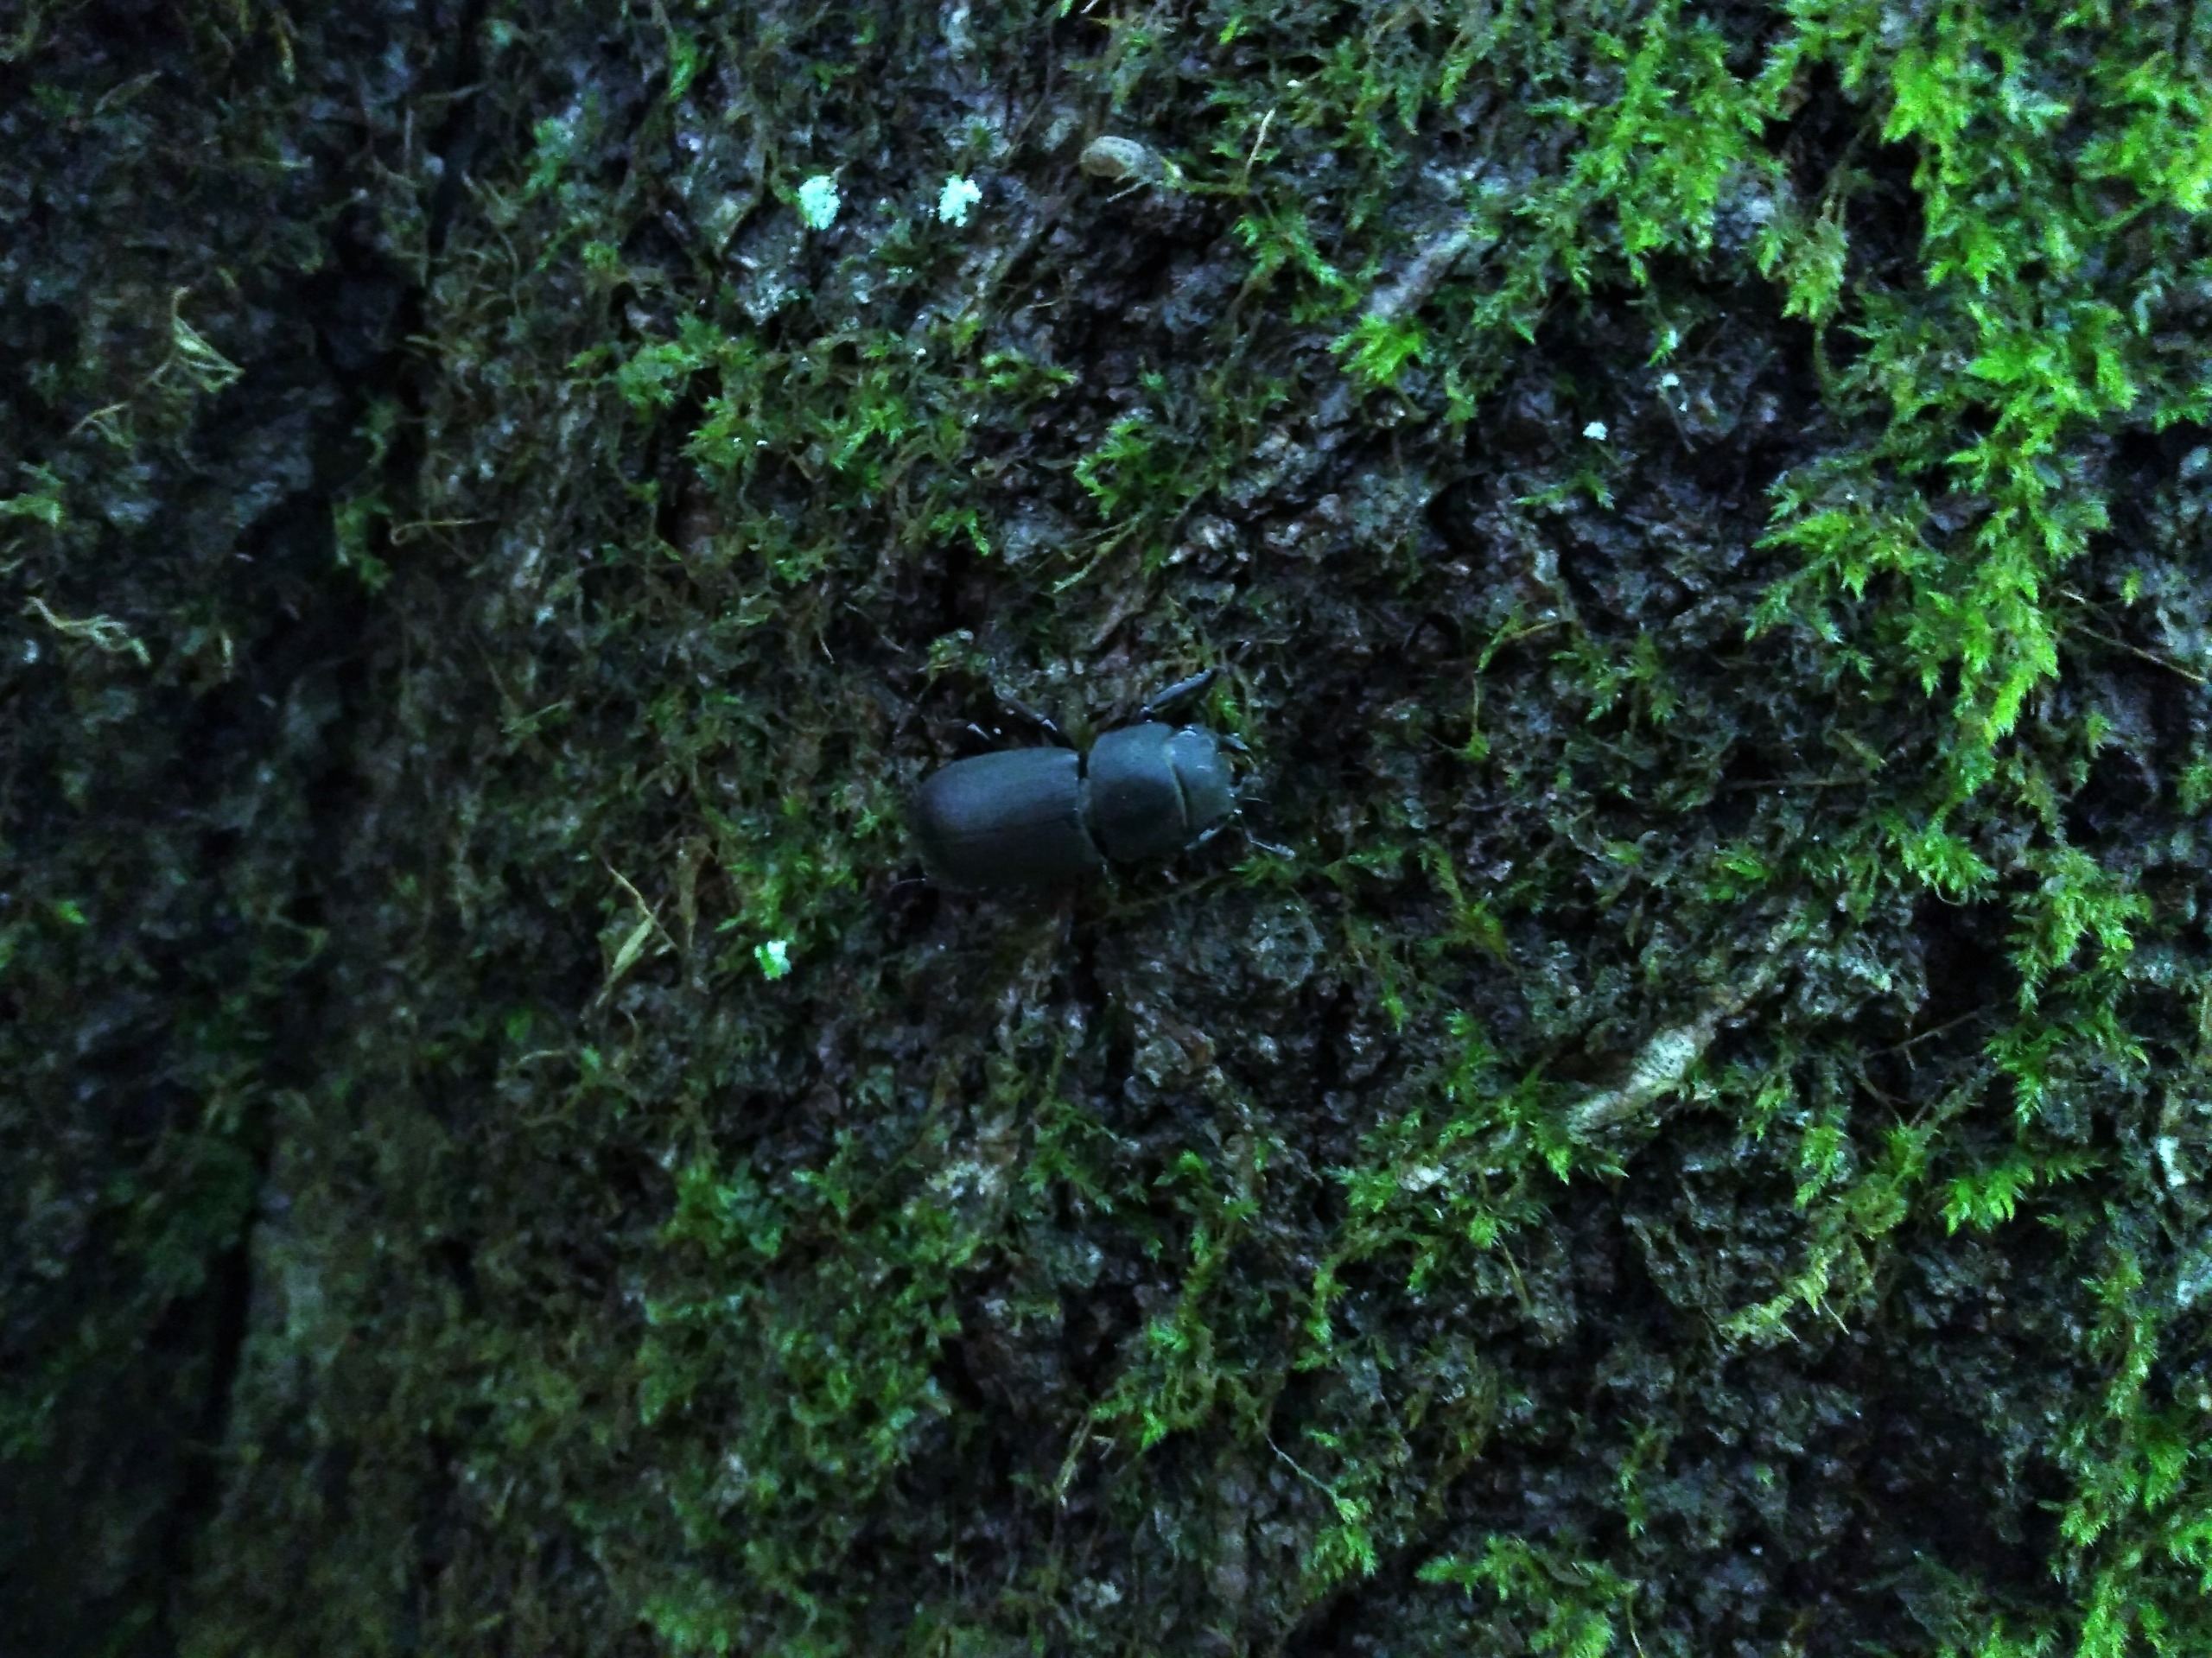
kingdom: Animalia
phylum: Arthropoda
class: Insecta
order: Coleoptera
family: Lucanidae
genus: Dorcus
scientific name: Dorcus parallelipipedus
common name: Bøghjort
